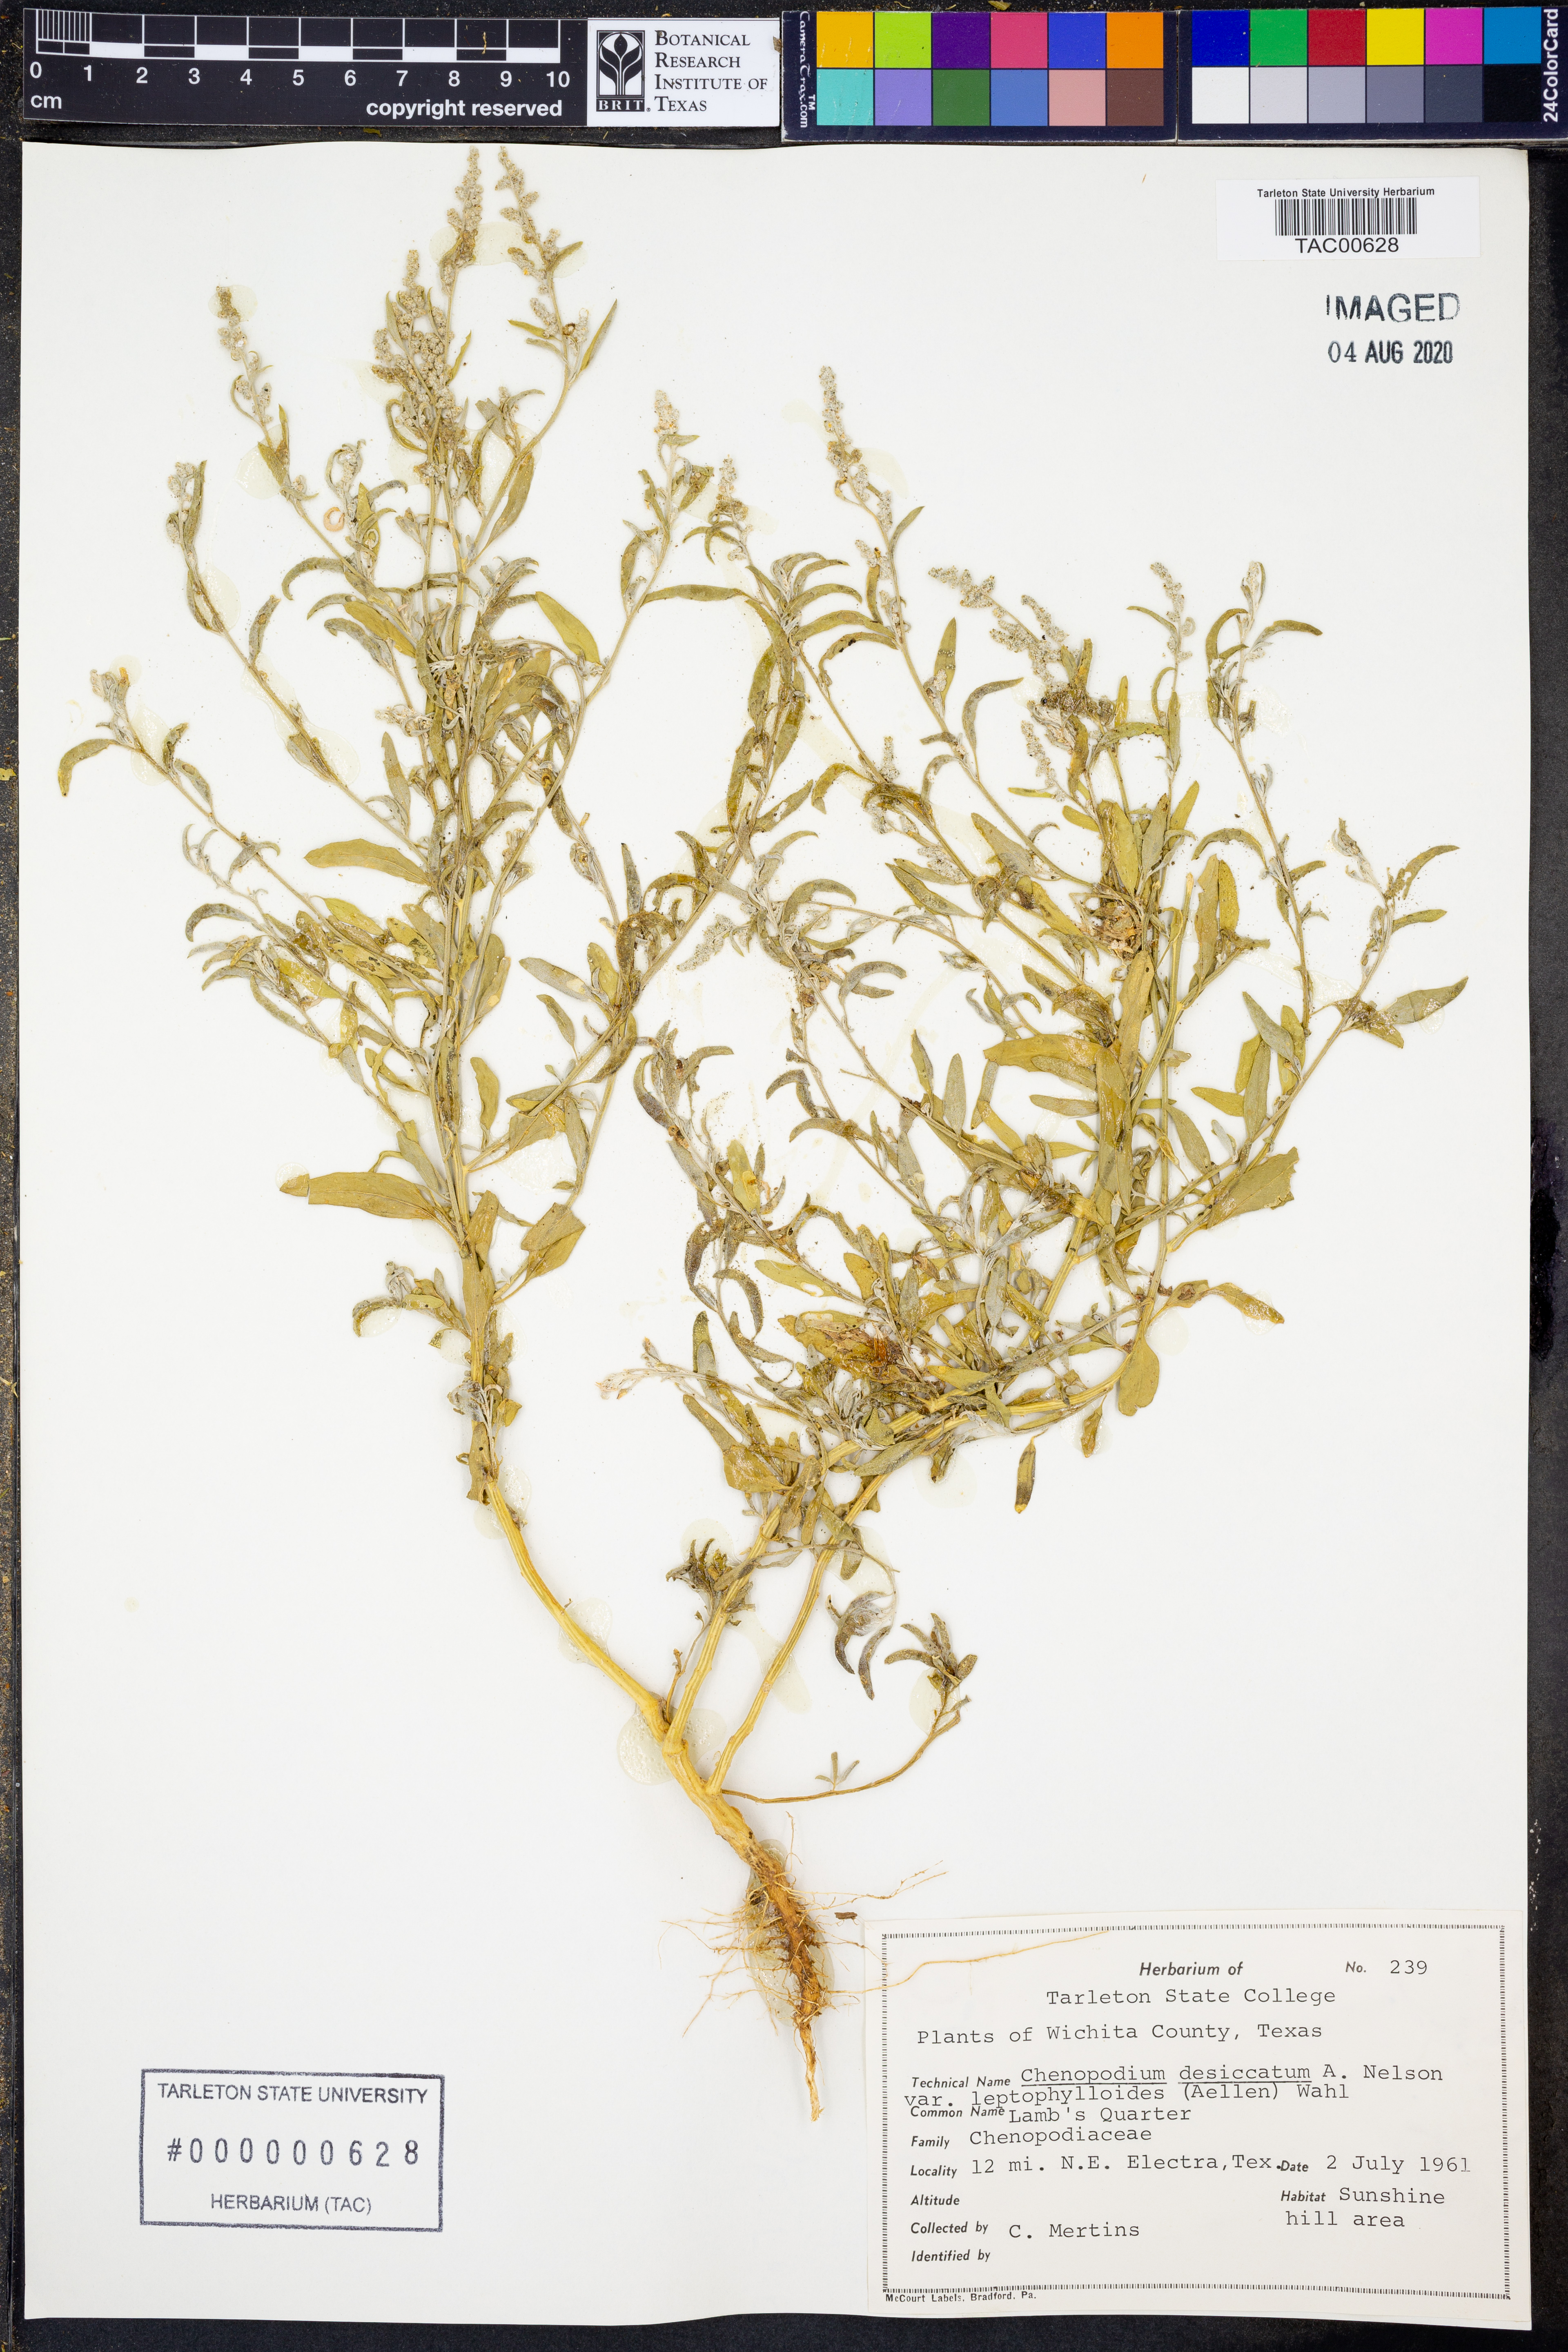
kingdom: Plantae
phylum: Tracheophyta
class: Magnoliopsida
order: Caryophyllales
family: Amaranthaceae
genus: Chenopodium
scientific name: Chenopodium pratericola
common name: Desert goosefoot
